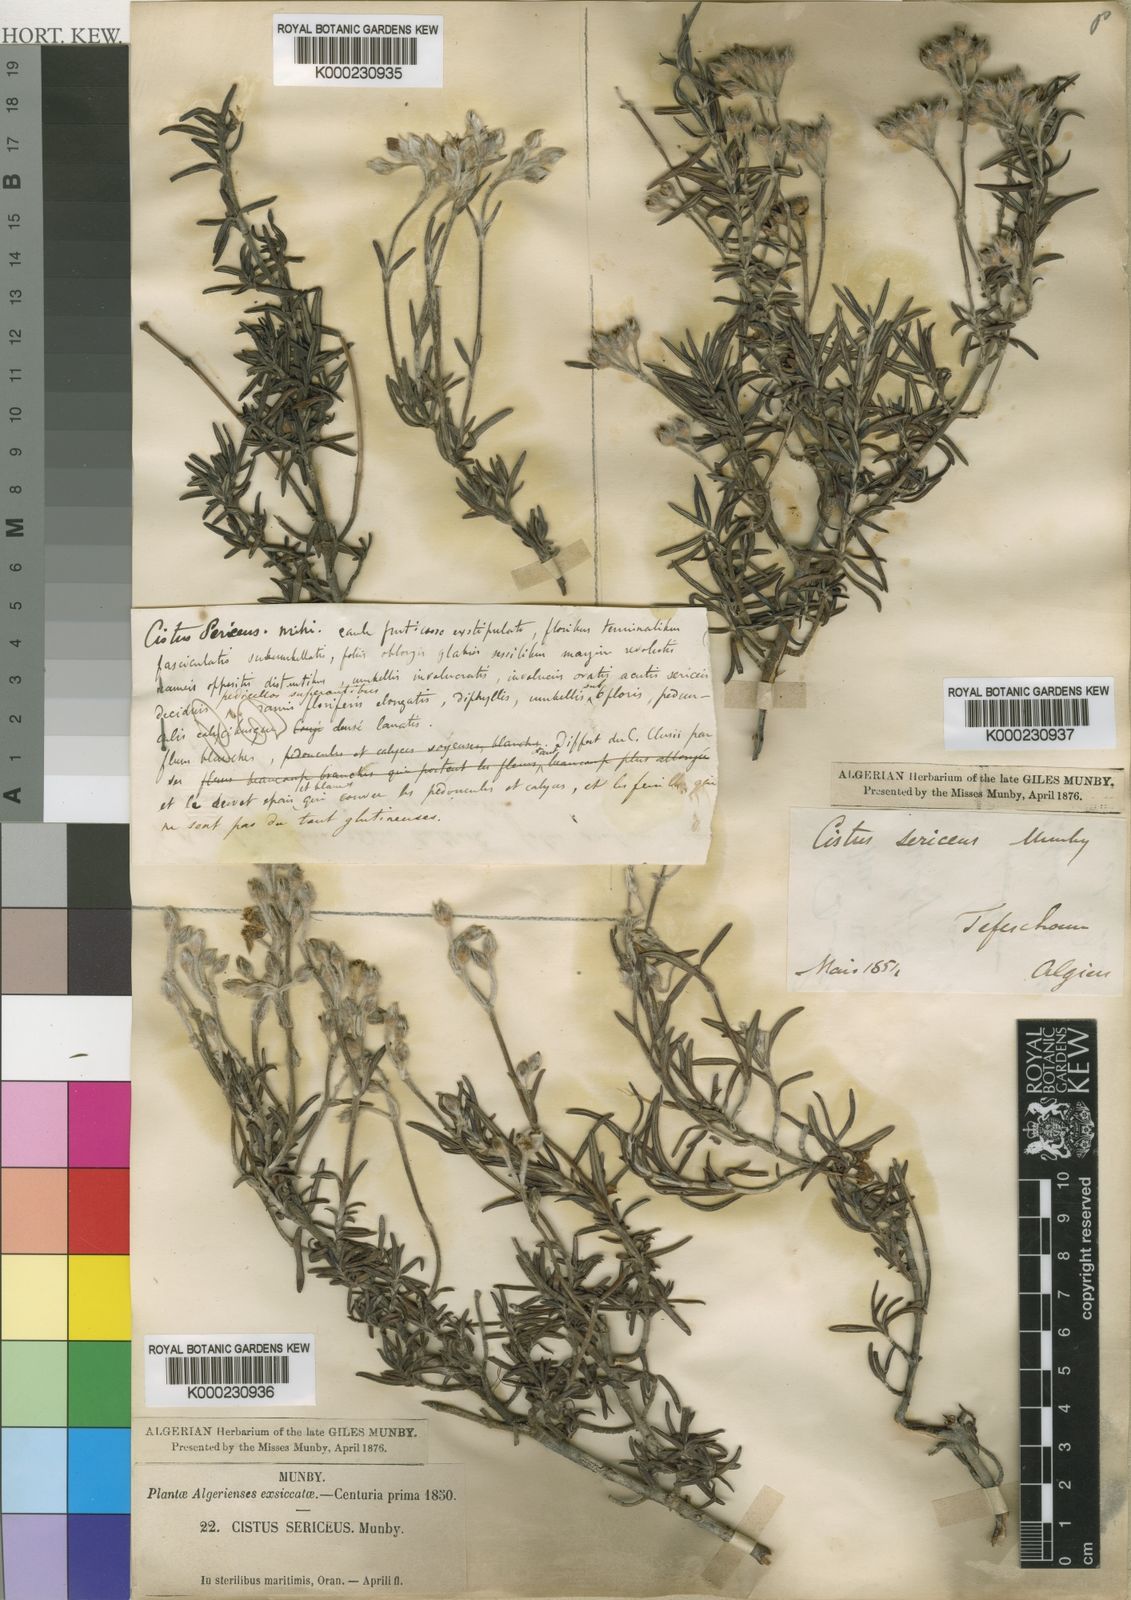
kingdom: Plantae
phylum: Tracheophyta
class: Magnoliopsida
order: Malvales
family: Cistaceae
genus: Cistus
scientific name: Cistus munbyi
